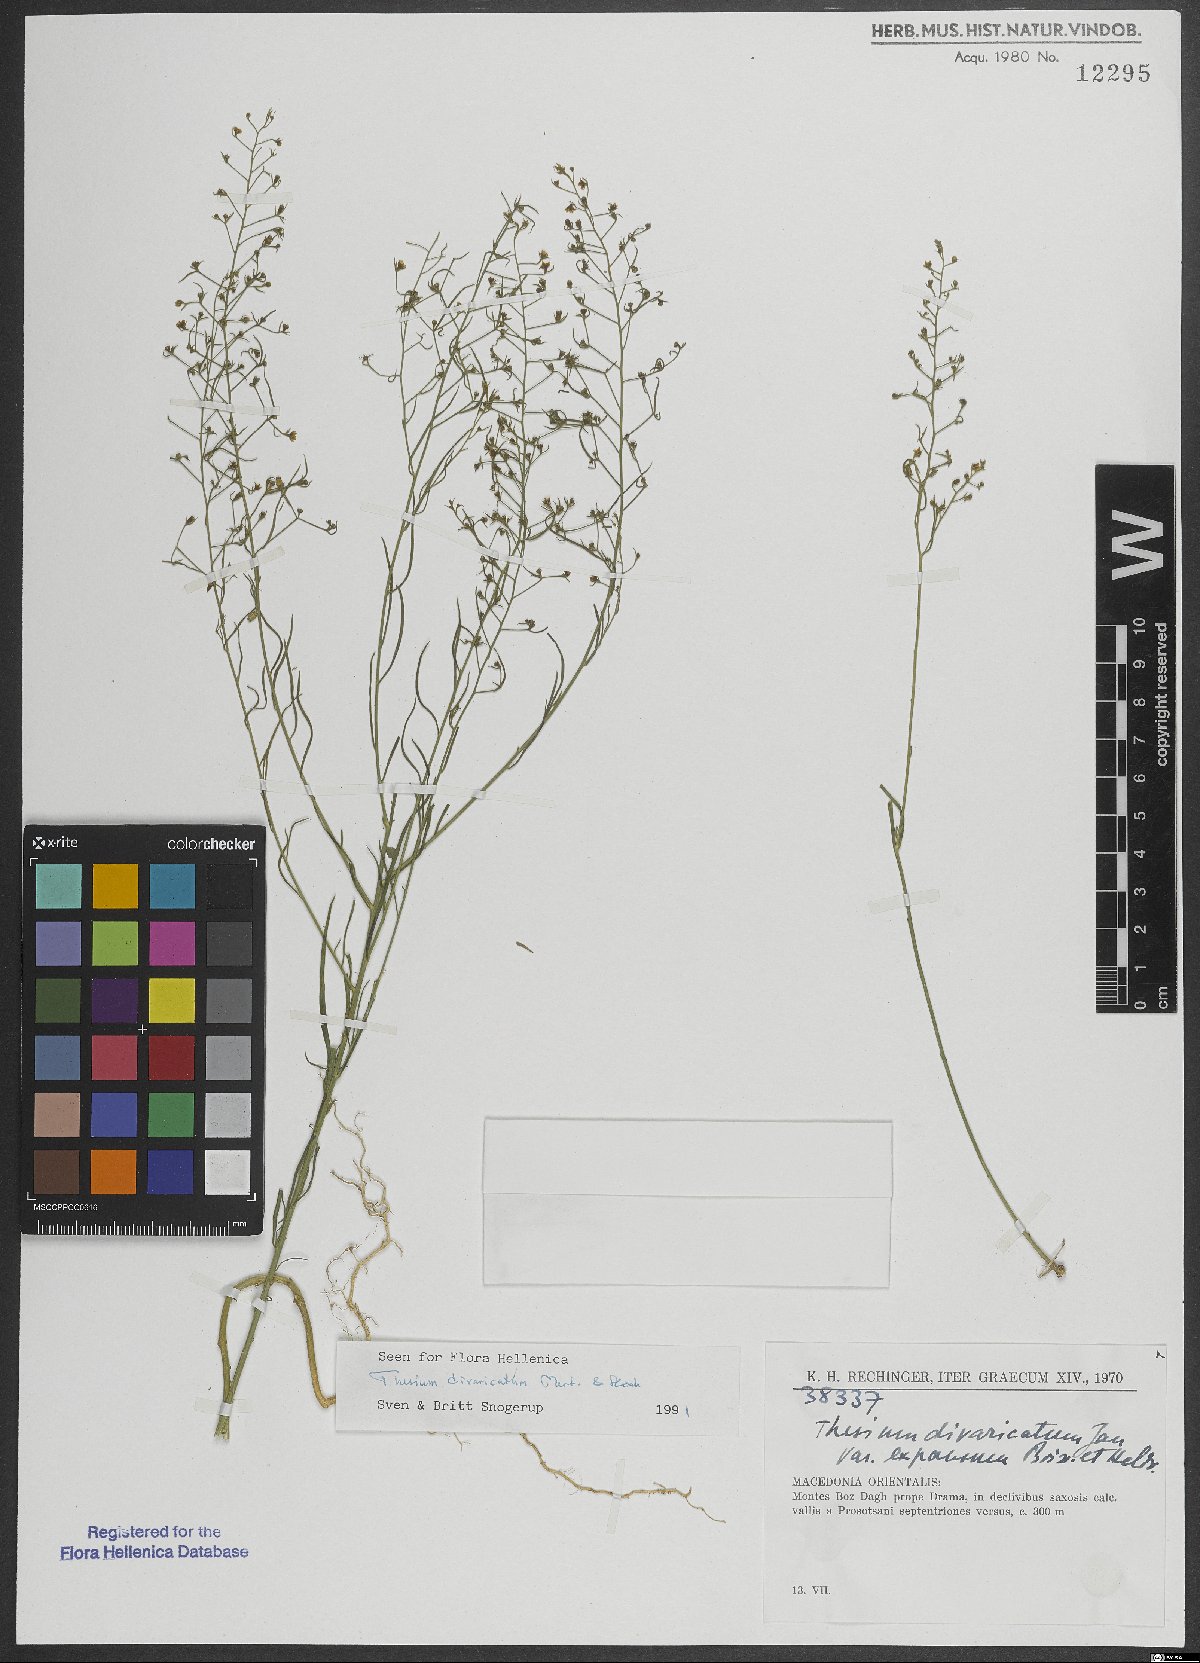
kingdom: Plantae
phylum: Tracheophyta
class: Magnoliopsida
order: Santalales
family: Thesiaceae
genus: Thesium
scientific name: Thesium divaricatum
